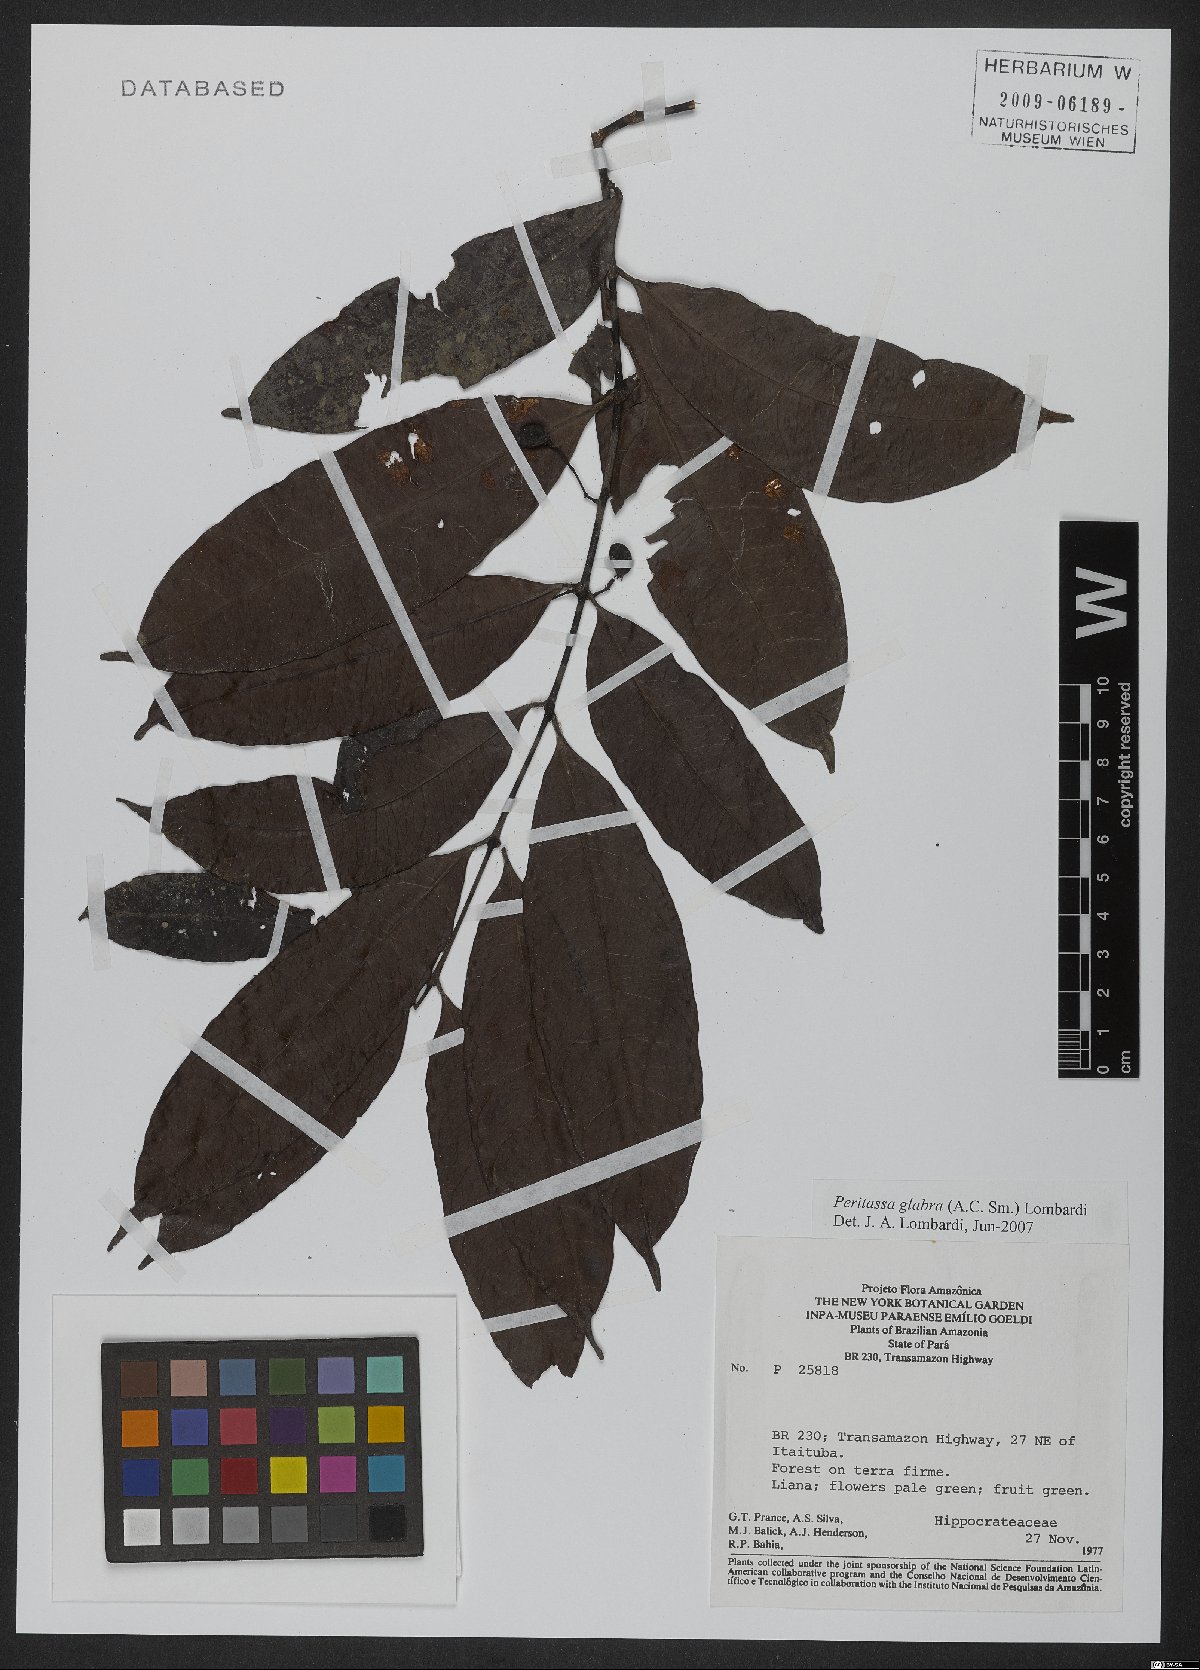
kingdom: Plantae
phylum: Tracheophyta
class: Magnoliopsida
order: Celastrales
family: Celastraceae
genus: Peritassa
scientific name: Peritassa glabra
